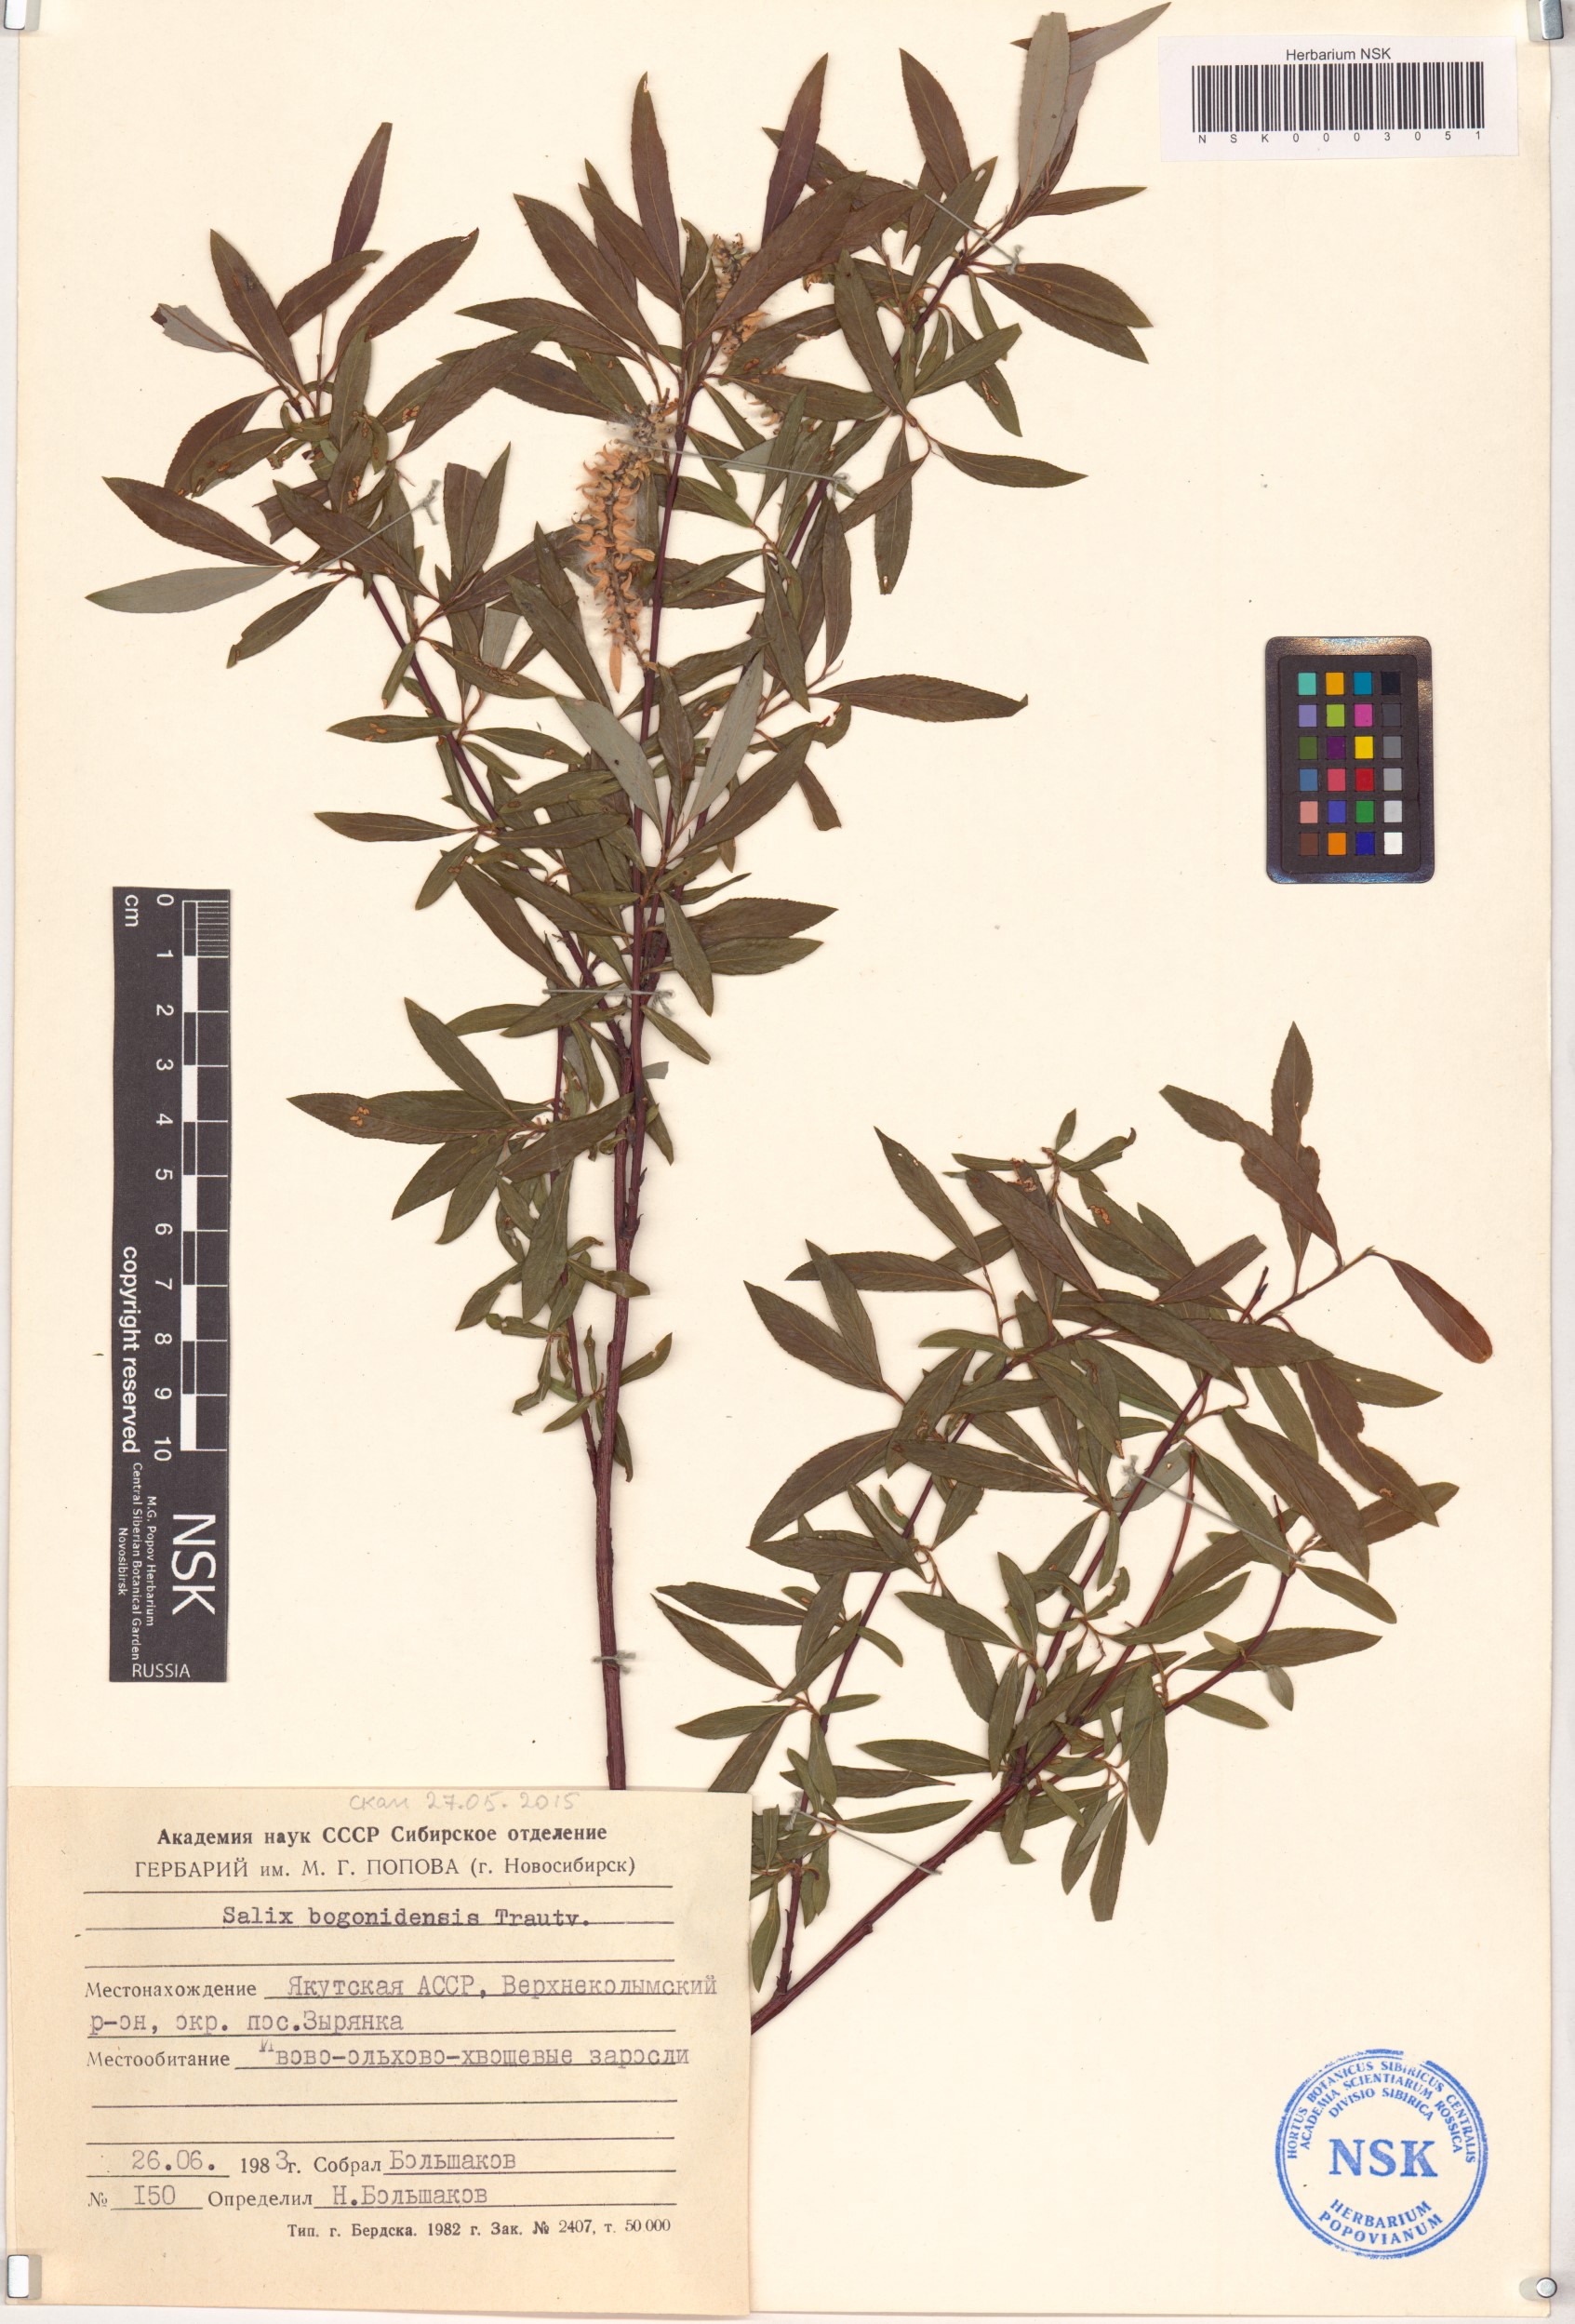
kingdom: Plantae
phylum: Tracheophyta
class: Magnoliopsida
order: Malpighiales
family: Salicaceae
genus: Salix
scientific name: Salix boganidensis
